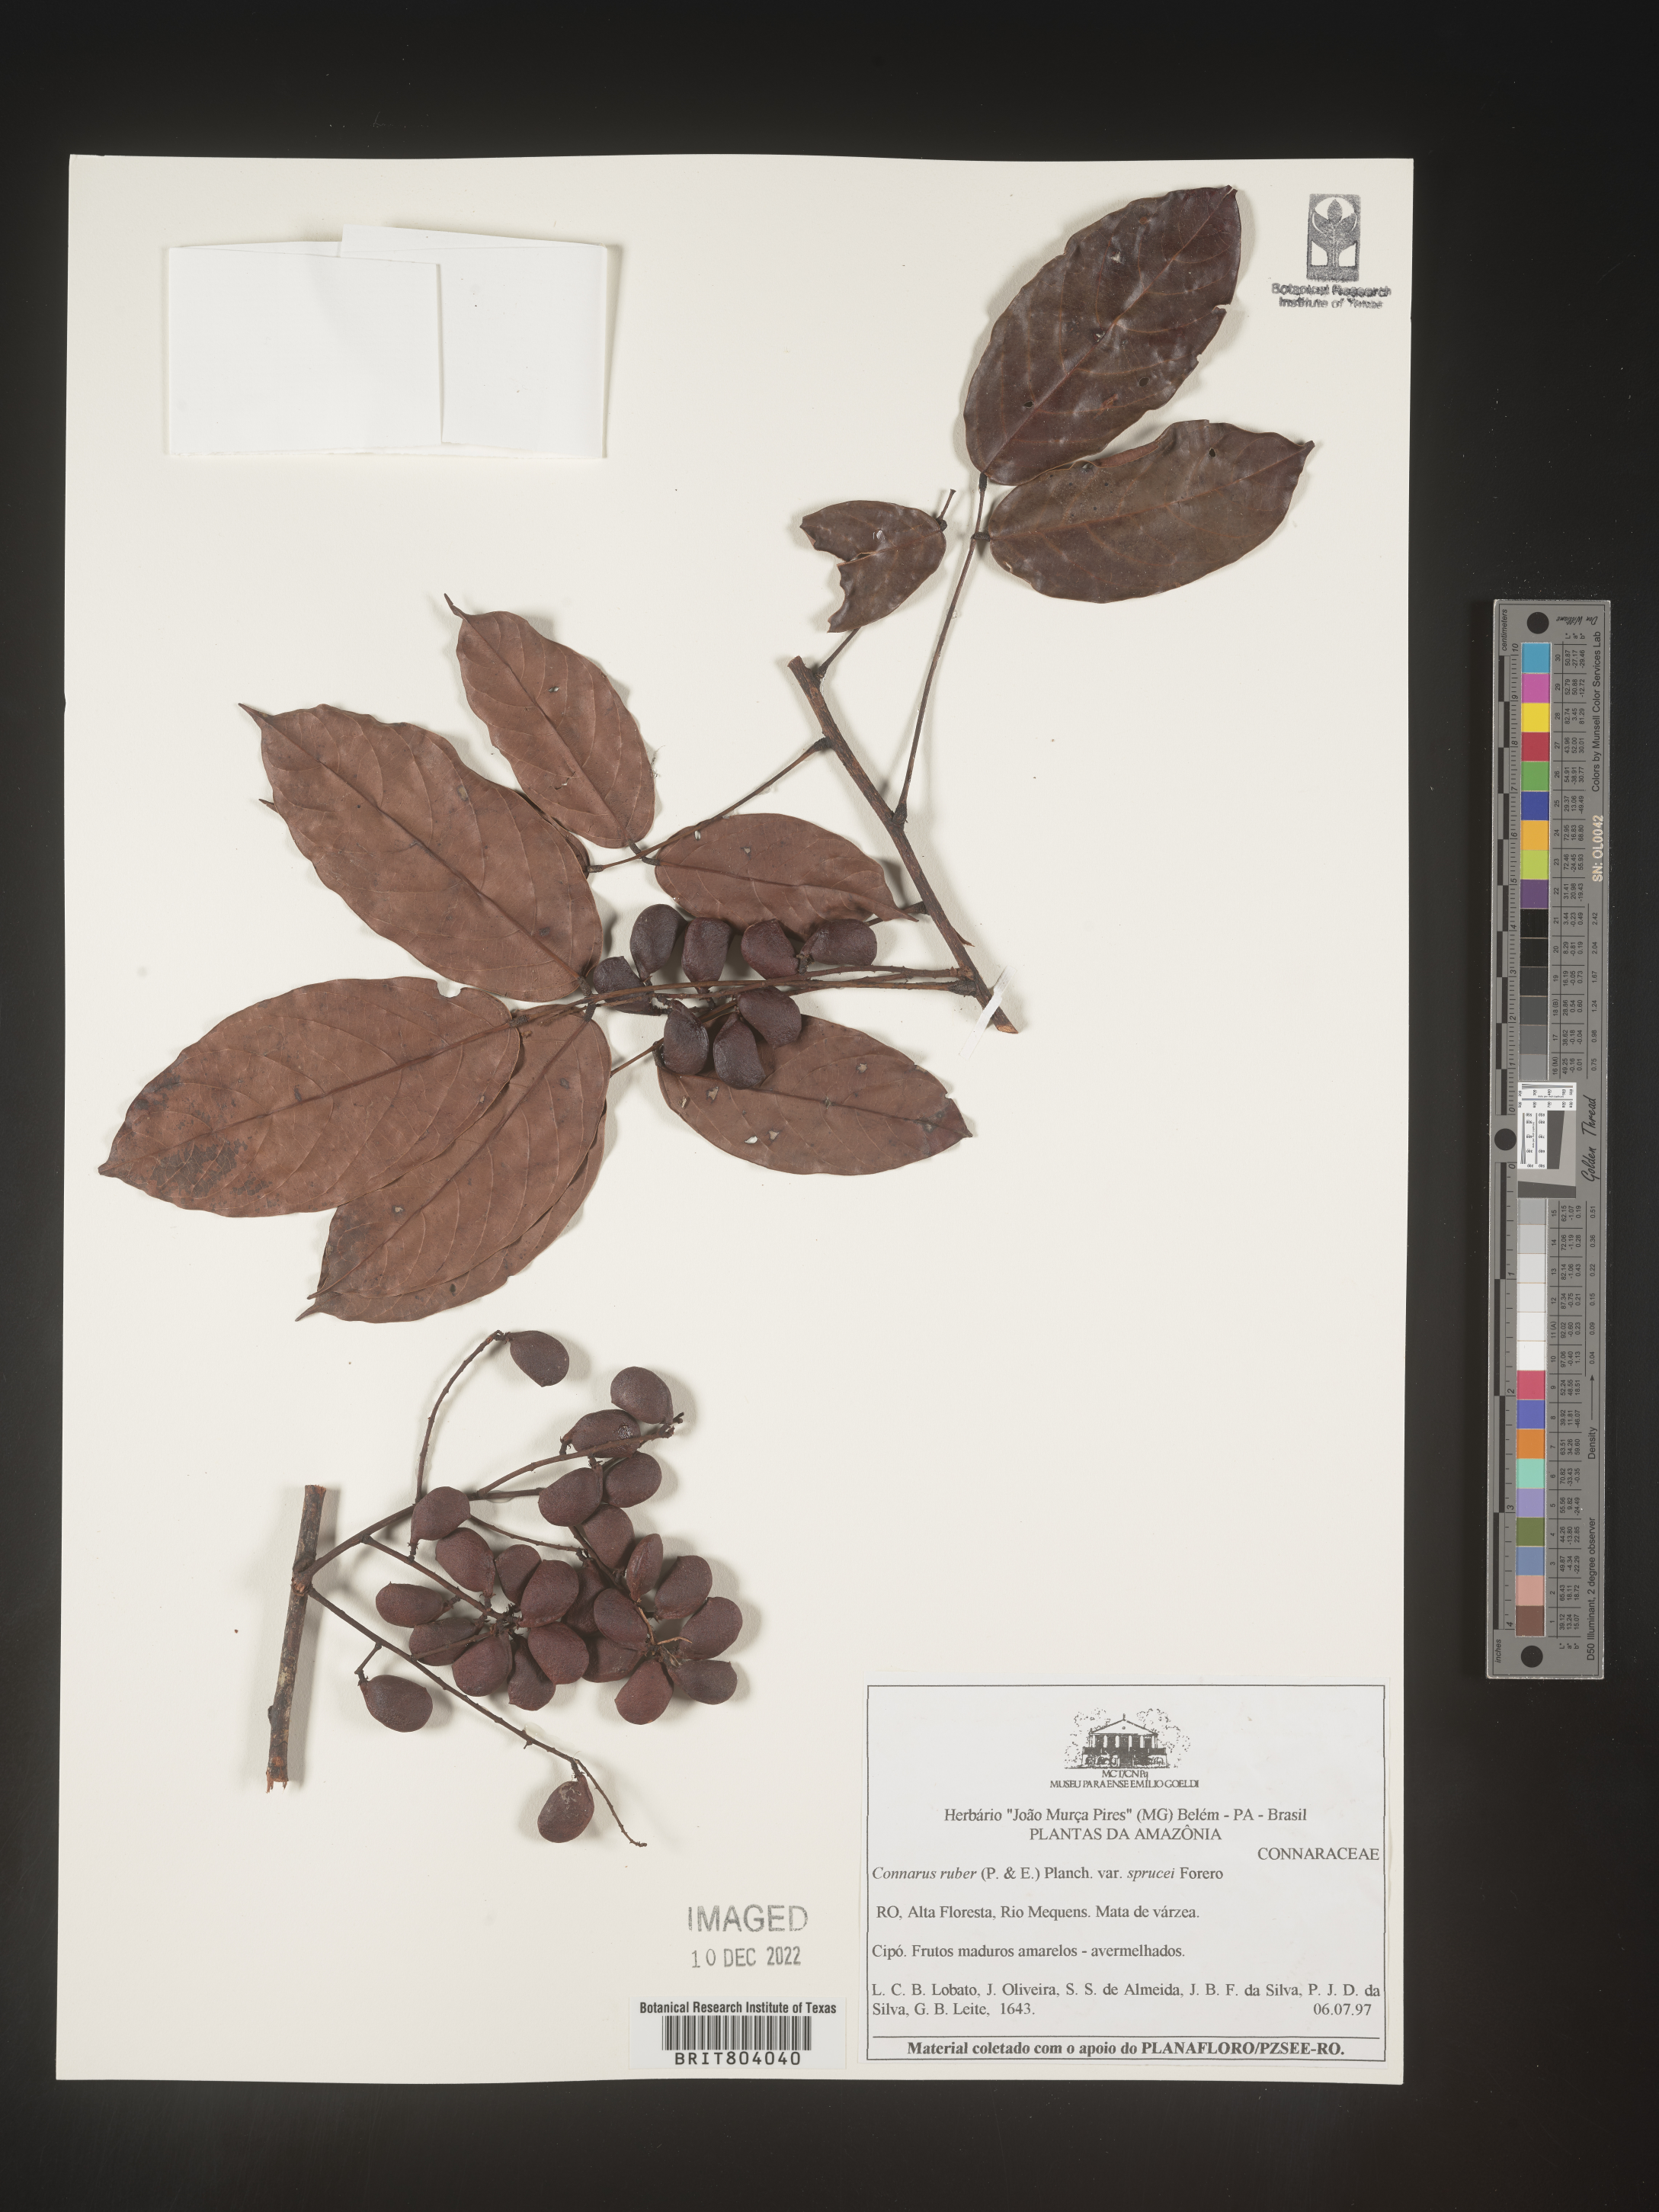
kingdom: Plantae
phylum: Tracheophyta
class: Magnoliopsida
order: Oxalidales
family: Connaraceae
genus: Connarus
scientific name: Connarus
